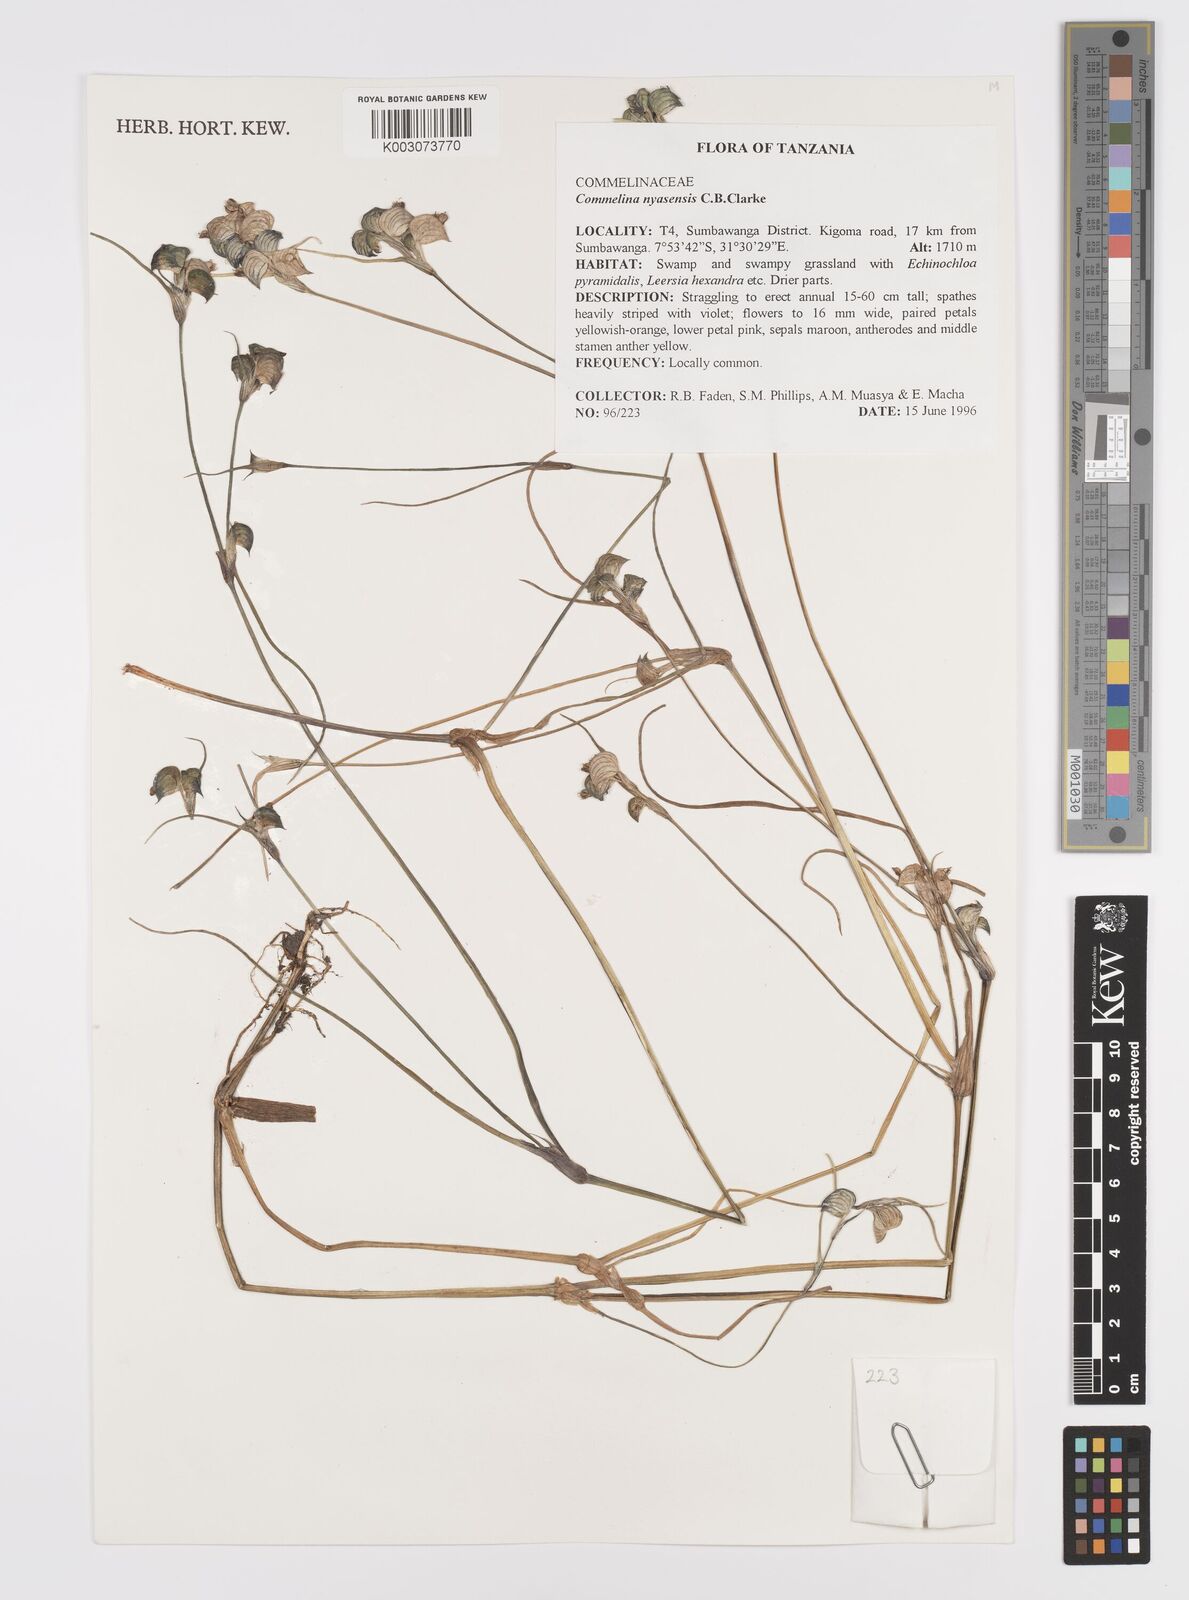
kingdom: Plantae
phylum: Tracheophyta
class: Liliopsida
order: Commelinales
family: Commelinaceae
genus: Commelina
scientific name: Commelina nyasensis
